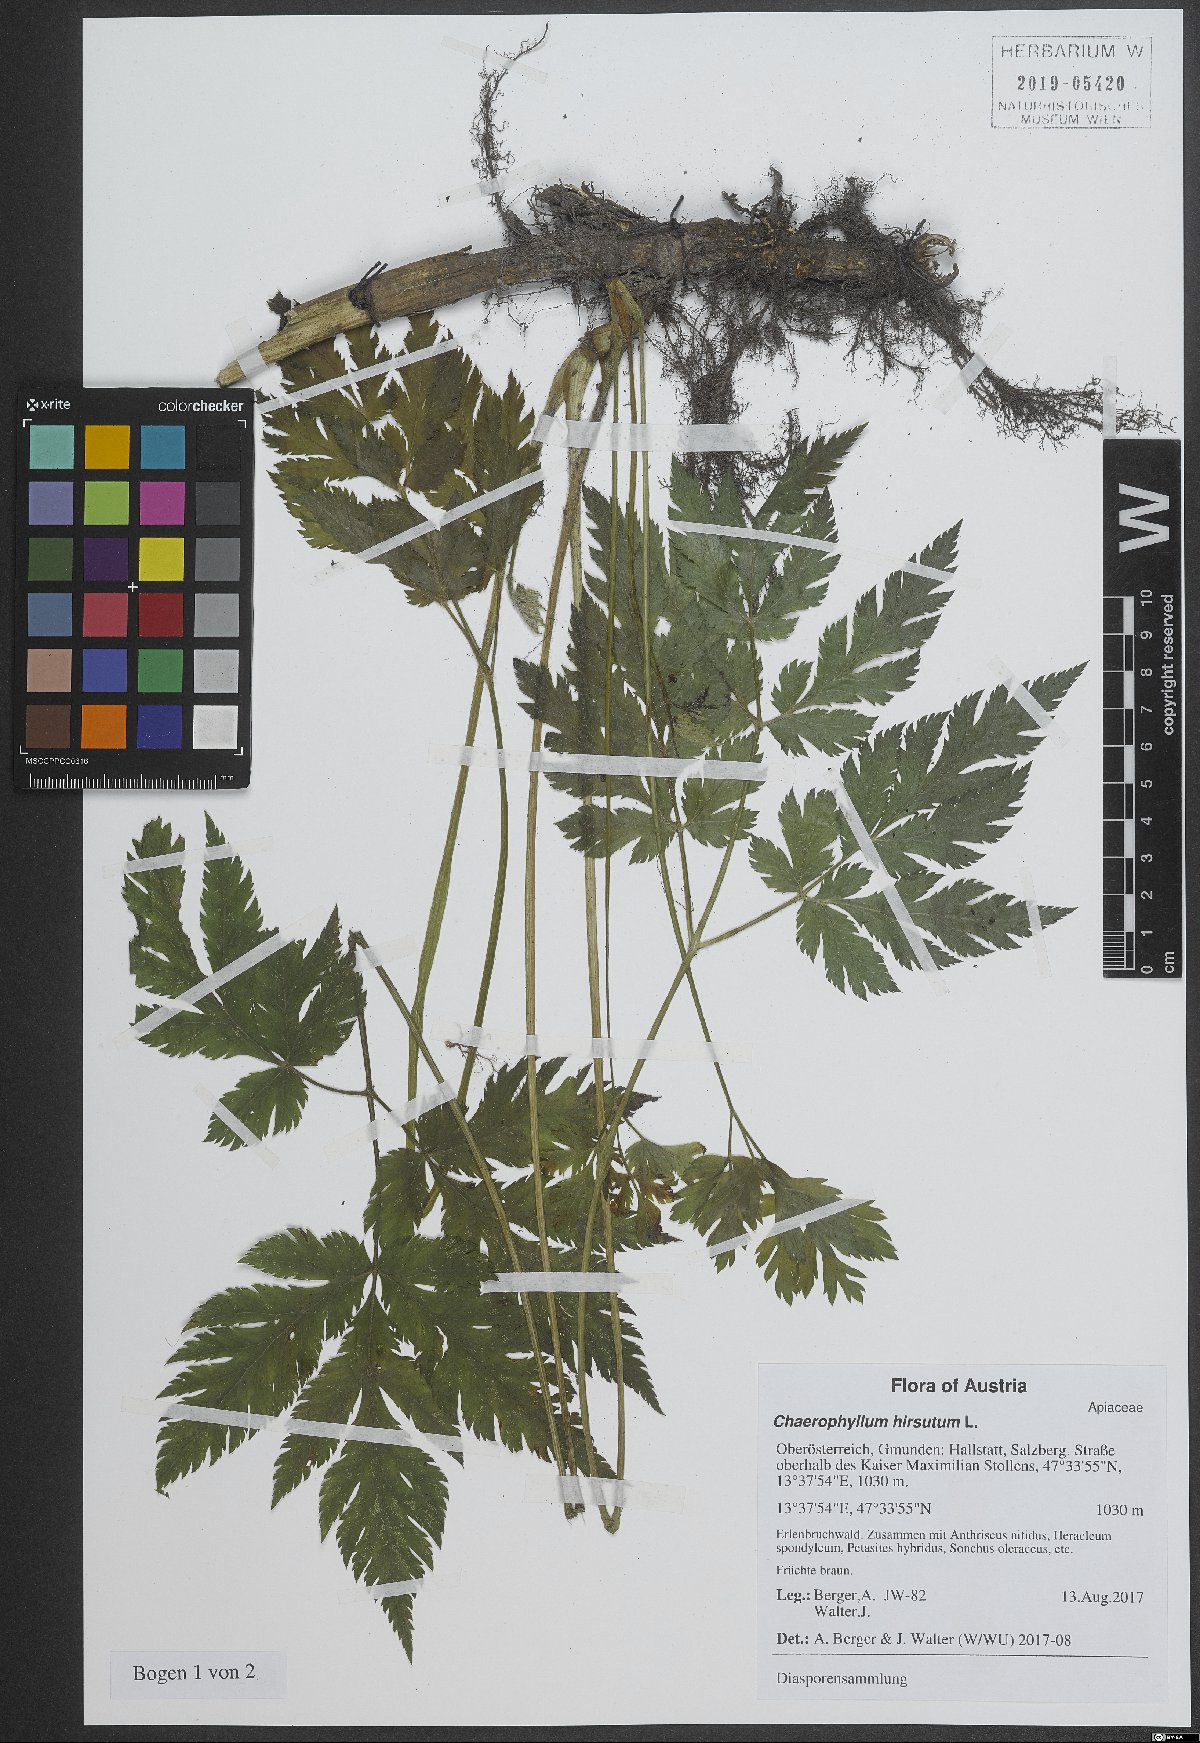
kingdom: Plantae
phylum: Tracheophyta
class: Magnoliopsida
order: Apiales
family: Apiaceae
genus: Chaerophyllum
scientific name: Chaerophyllum hirsutum
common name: Hairy chervil
